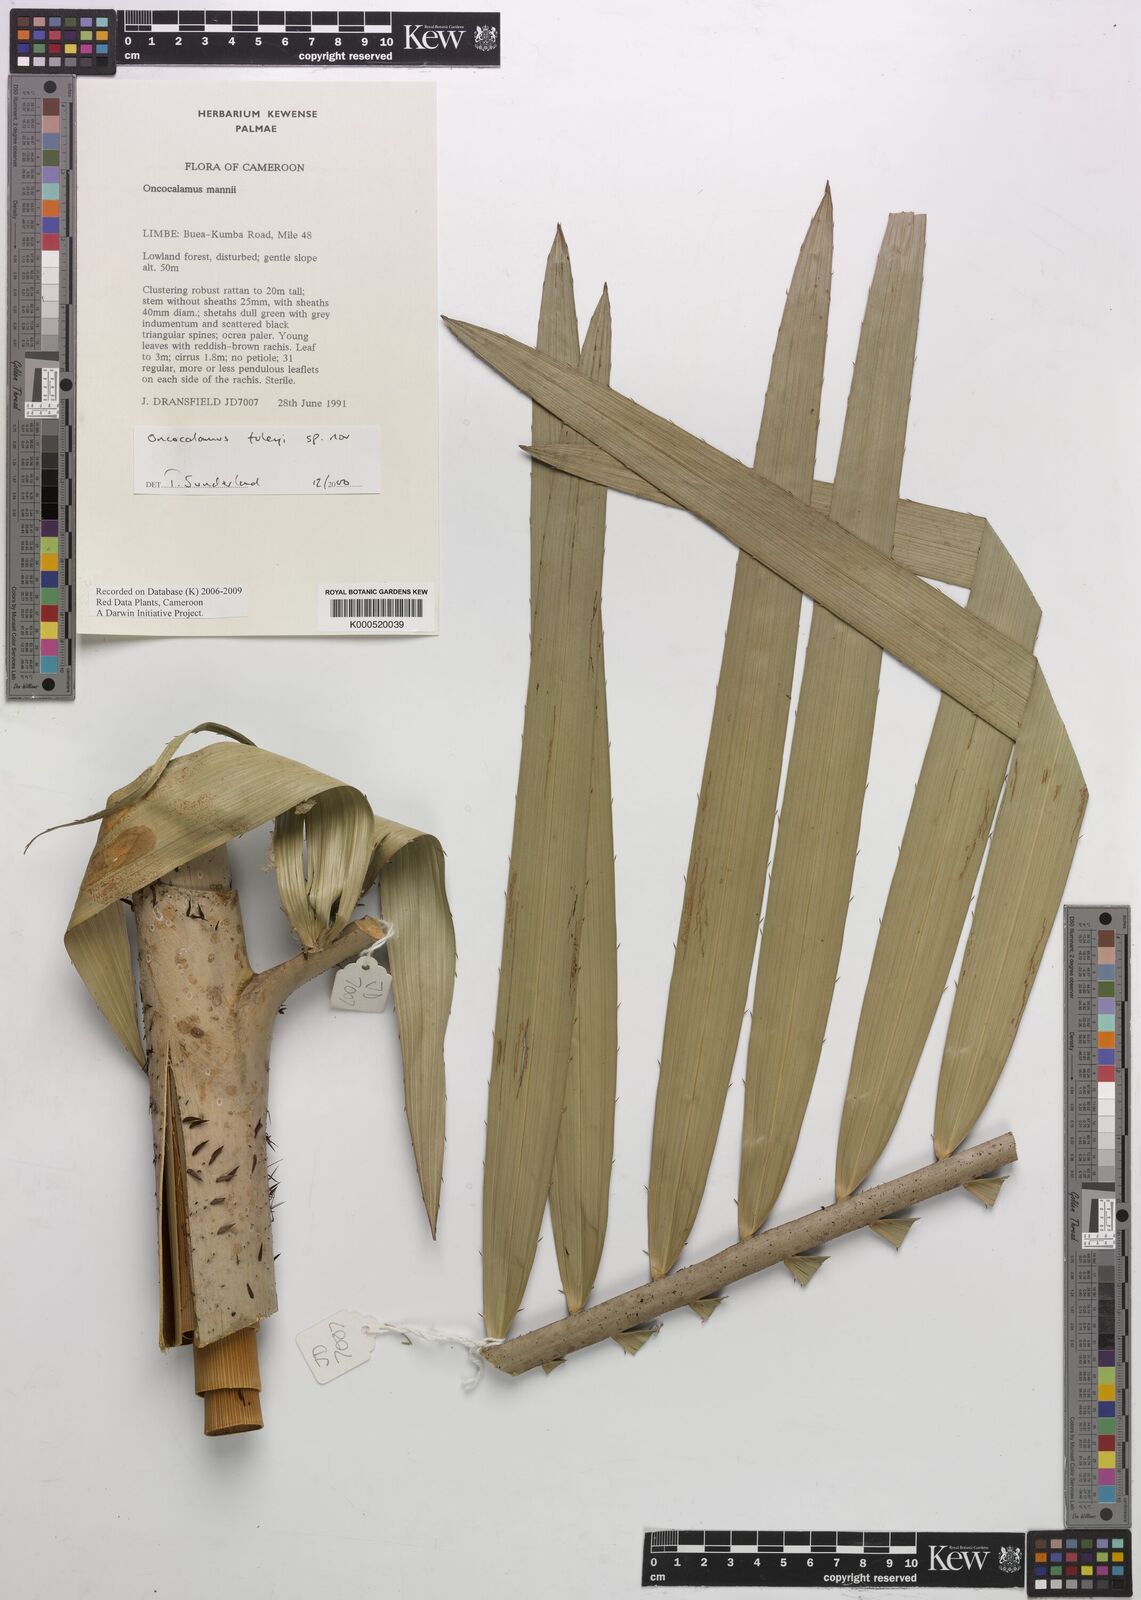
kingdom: Plantae
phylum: Tracheophyta
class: Liliopsida
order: Arecales
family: Arecaceae
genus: Oncocalamus
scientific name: Oncocalamus tuleyi
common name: Rattan
